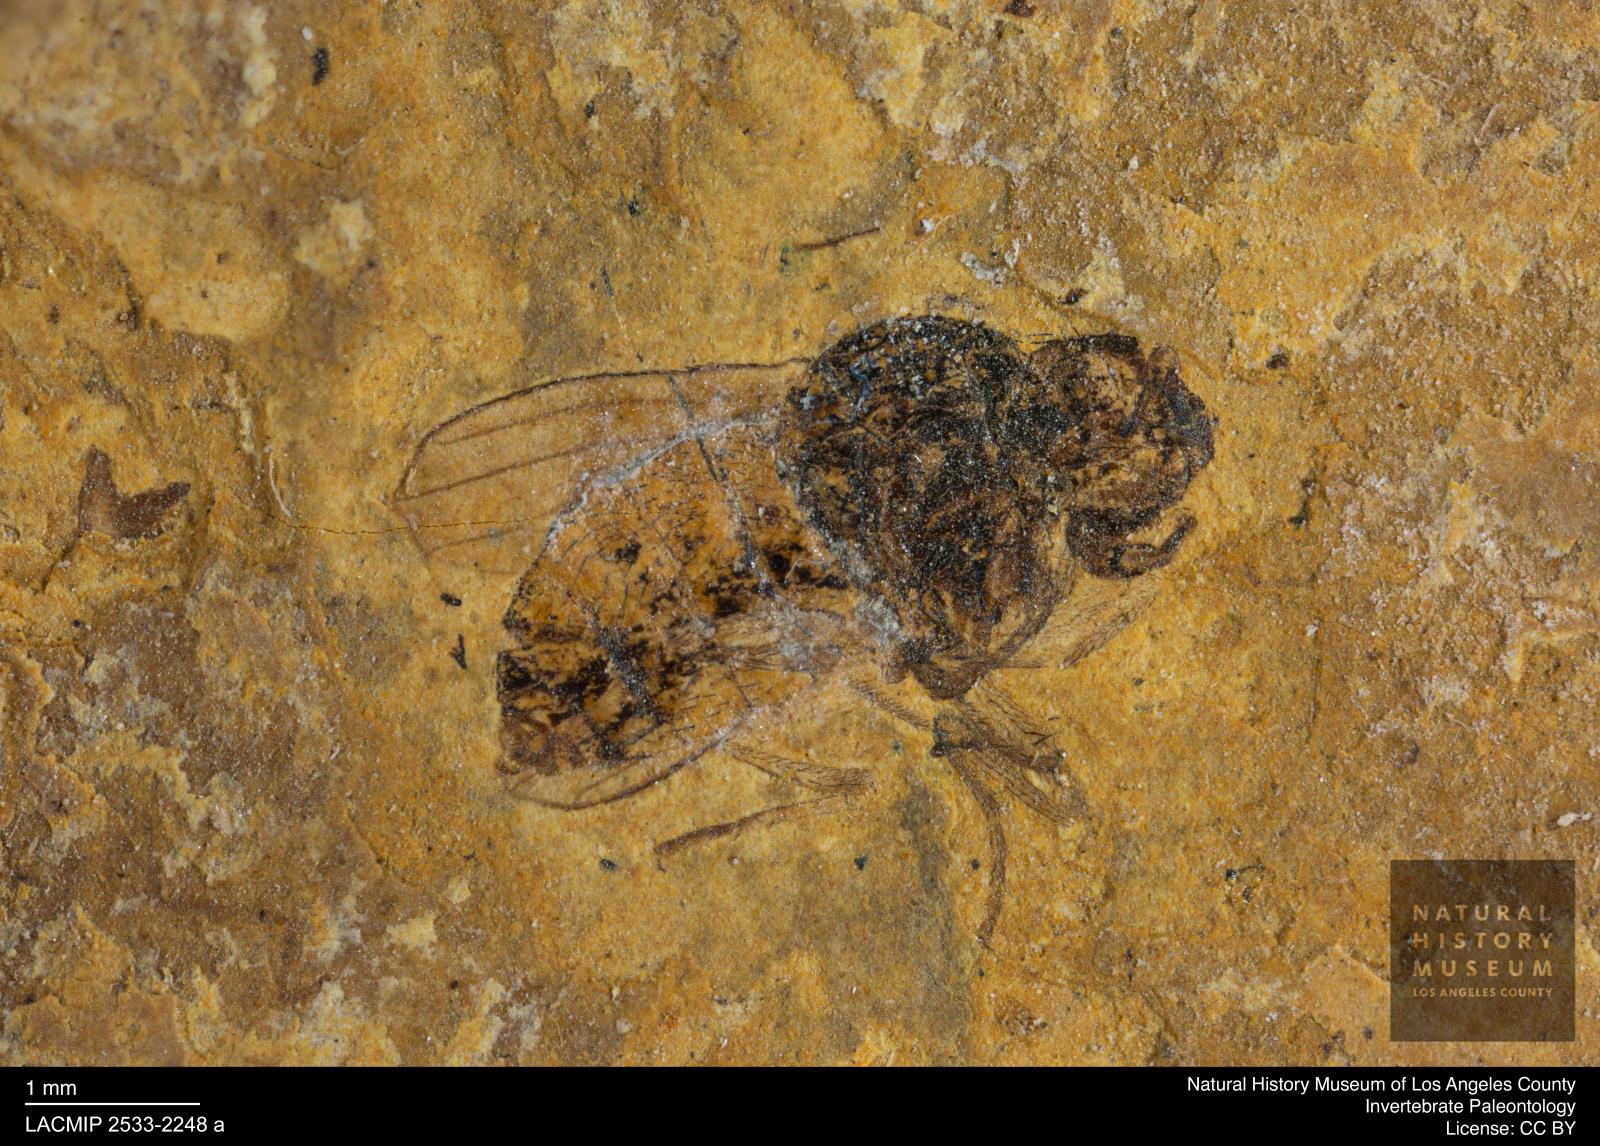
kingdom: Animalia
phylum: Arthropoda
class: Insecta
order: Diptera
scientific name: Diptera
